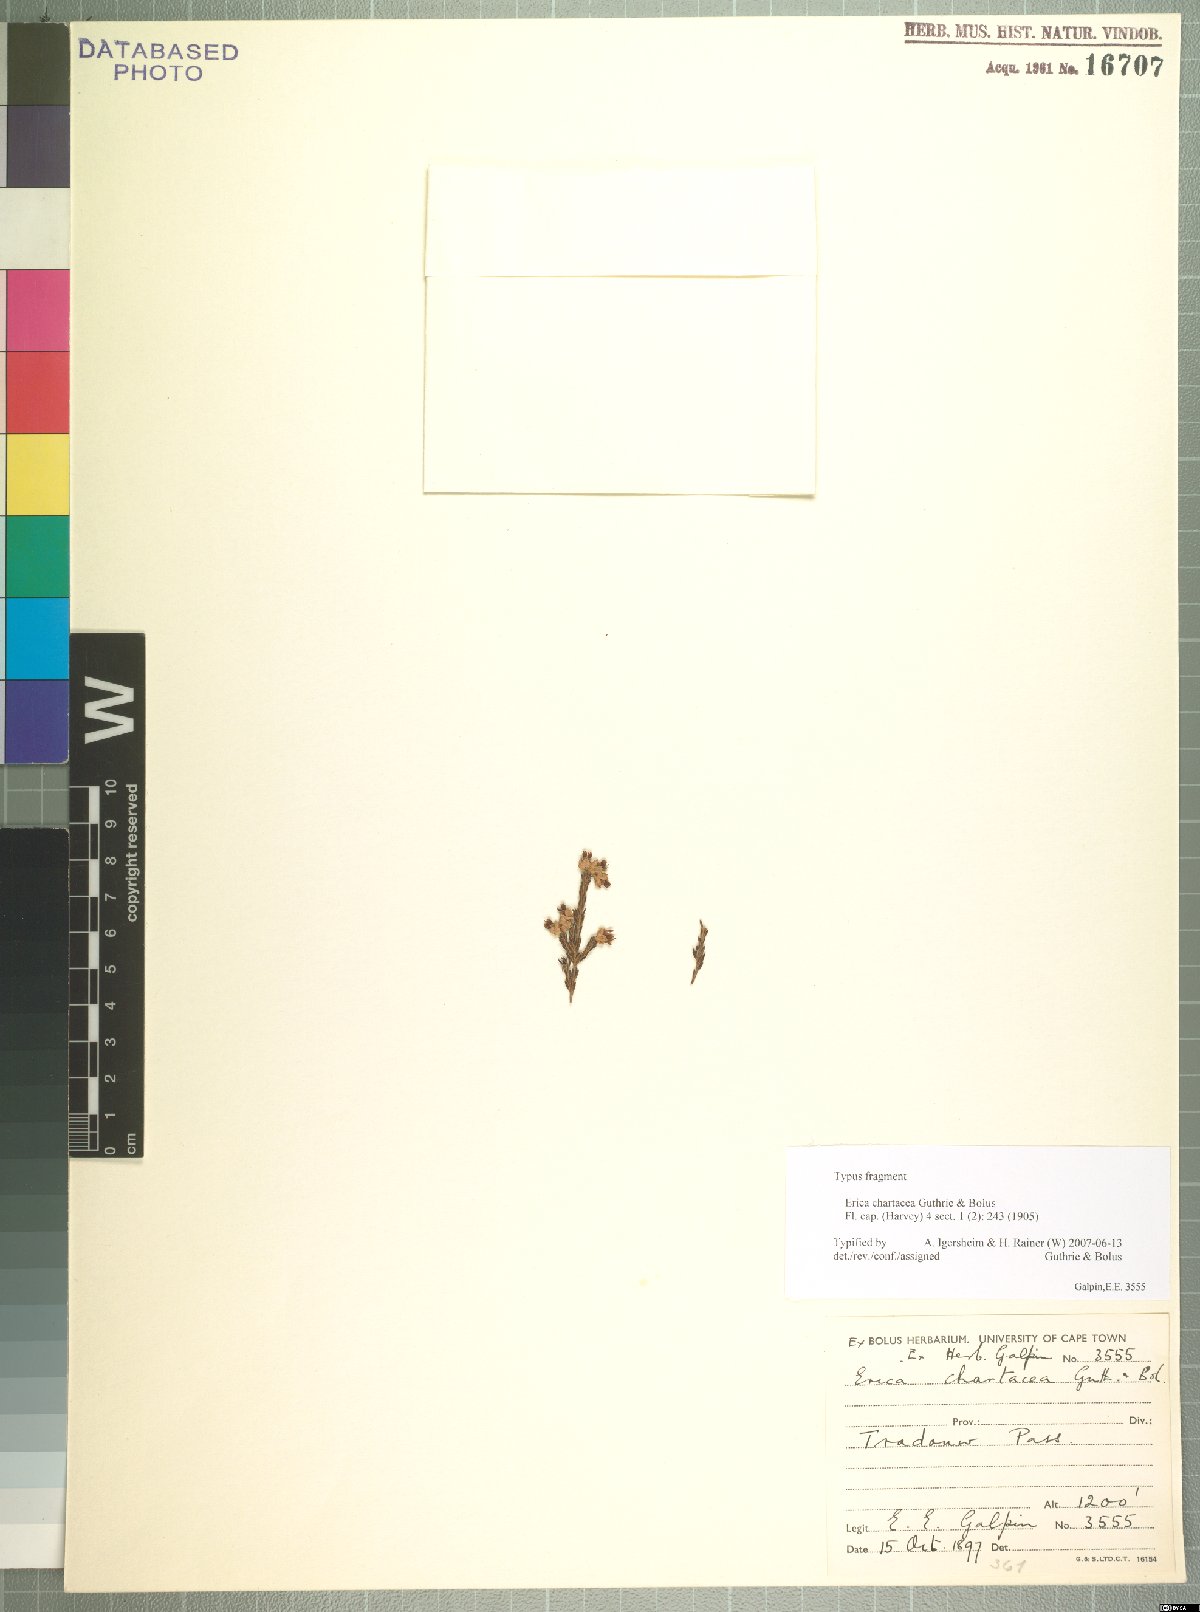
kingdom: Plantae
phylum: Tracheophyta
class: Magnoliopsida
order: Ericales
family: Ericaceae
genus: Erica
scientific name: Erica chartacea
